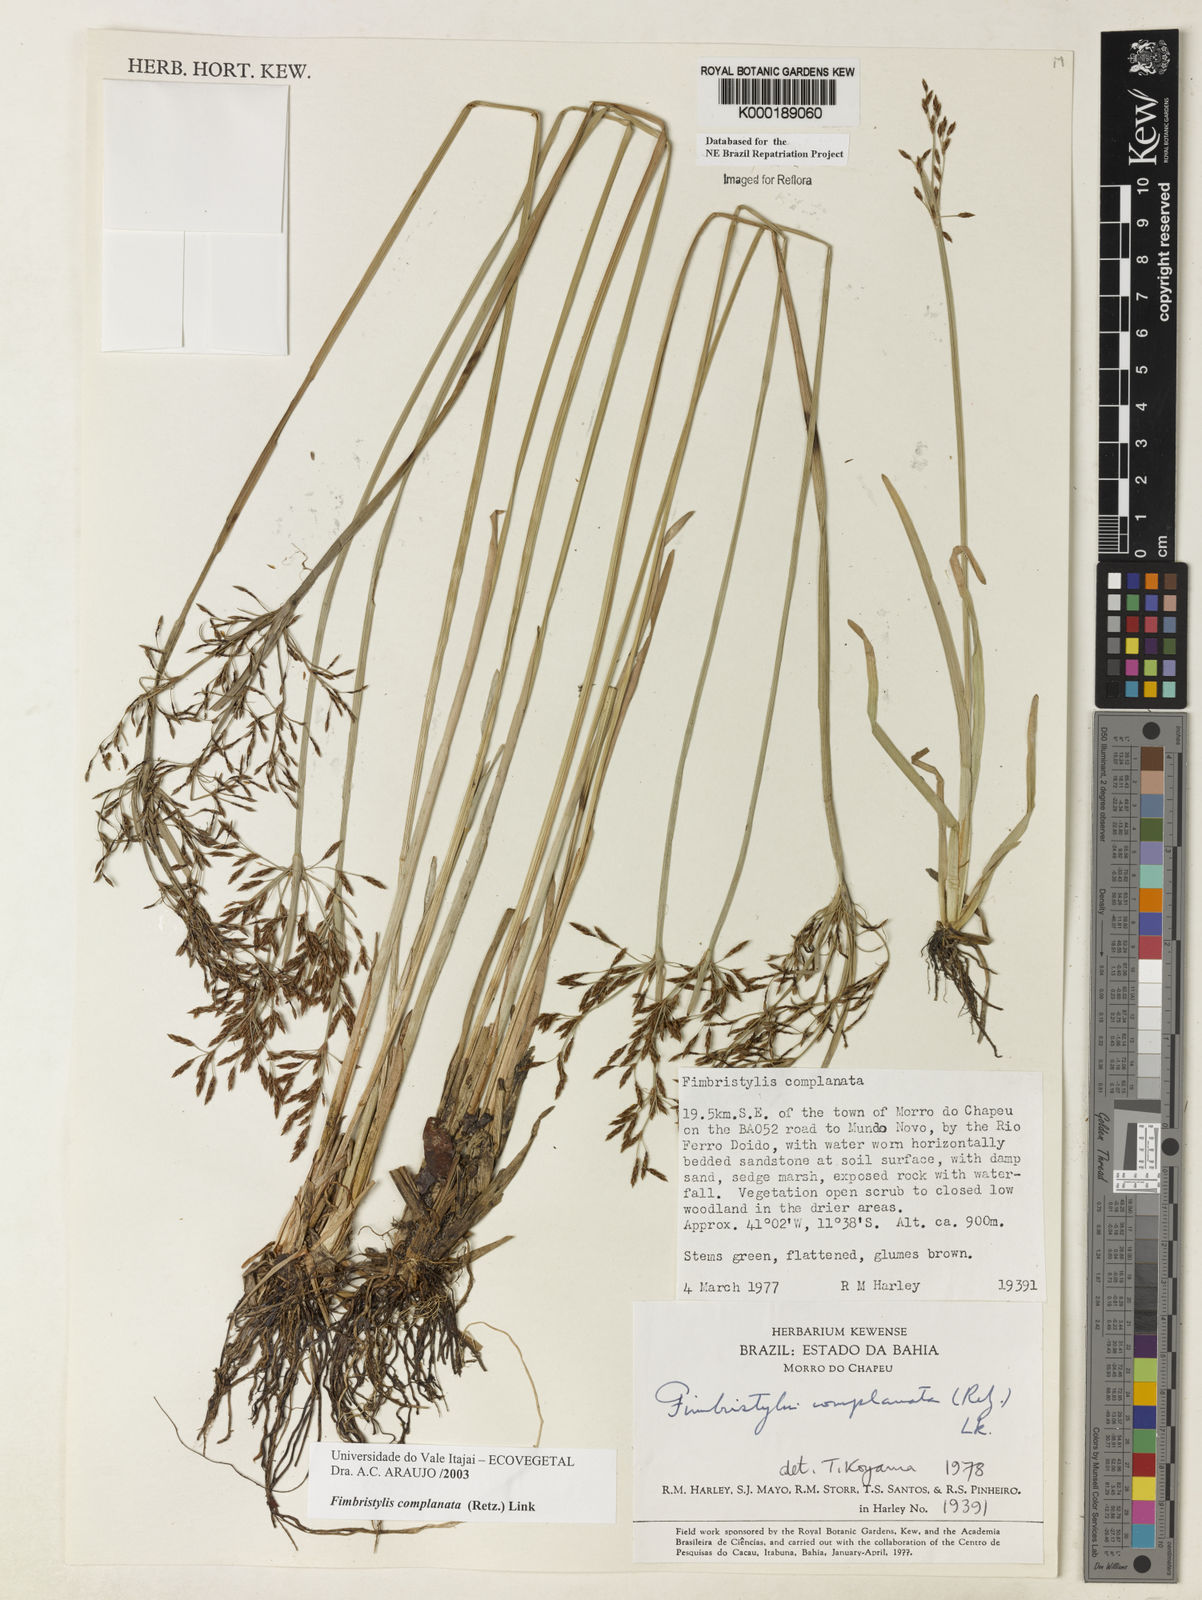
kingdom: Plantae
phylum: Tracheophyta
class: Liliopsida
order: Poales
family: Cyperaceae
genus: Fimbristylis
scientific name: Fimbristylis complanata
